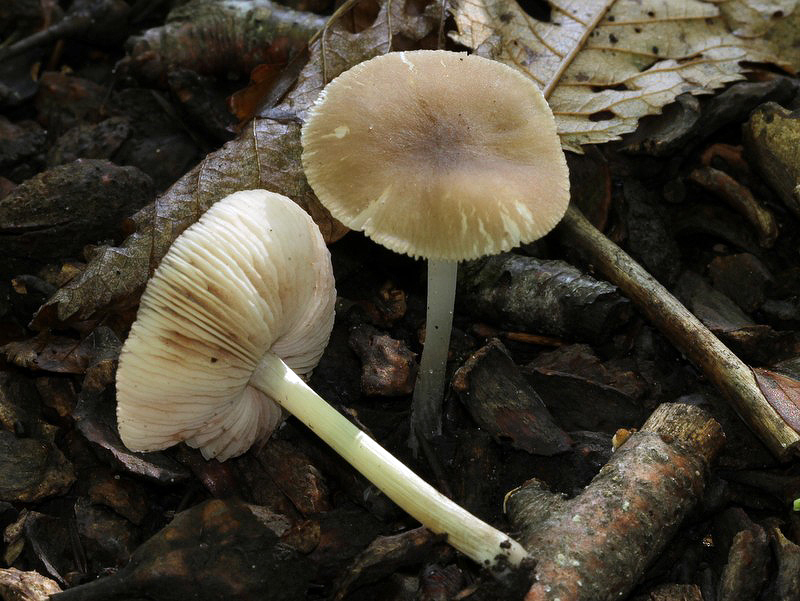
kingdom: Fungi
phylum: Basidiomycota
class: Agaricomycetes
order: Agaricales
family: Pluteaceae
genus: Pluteus
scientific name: Pluteus phlebophorus
